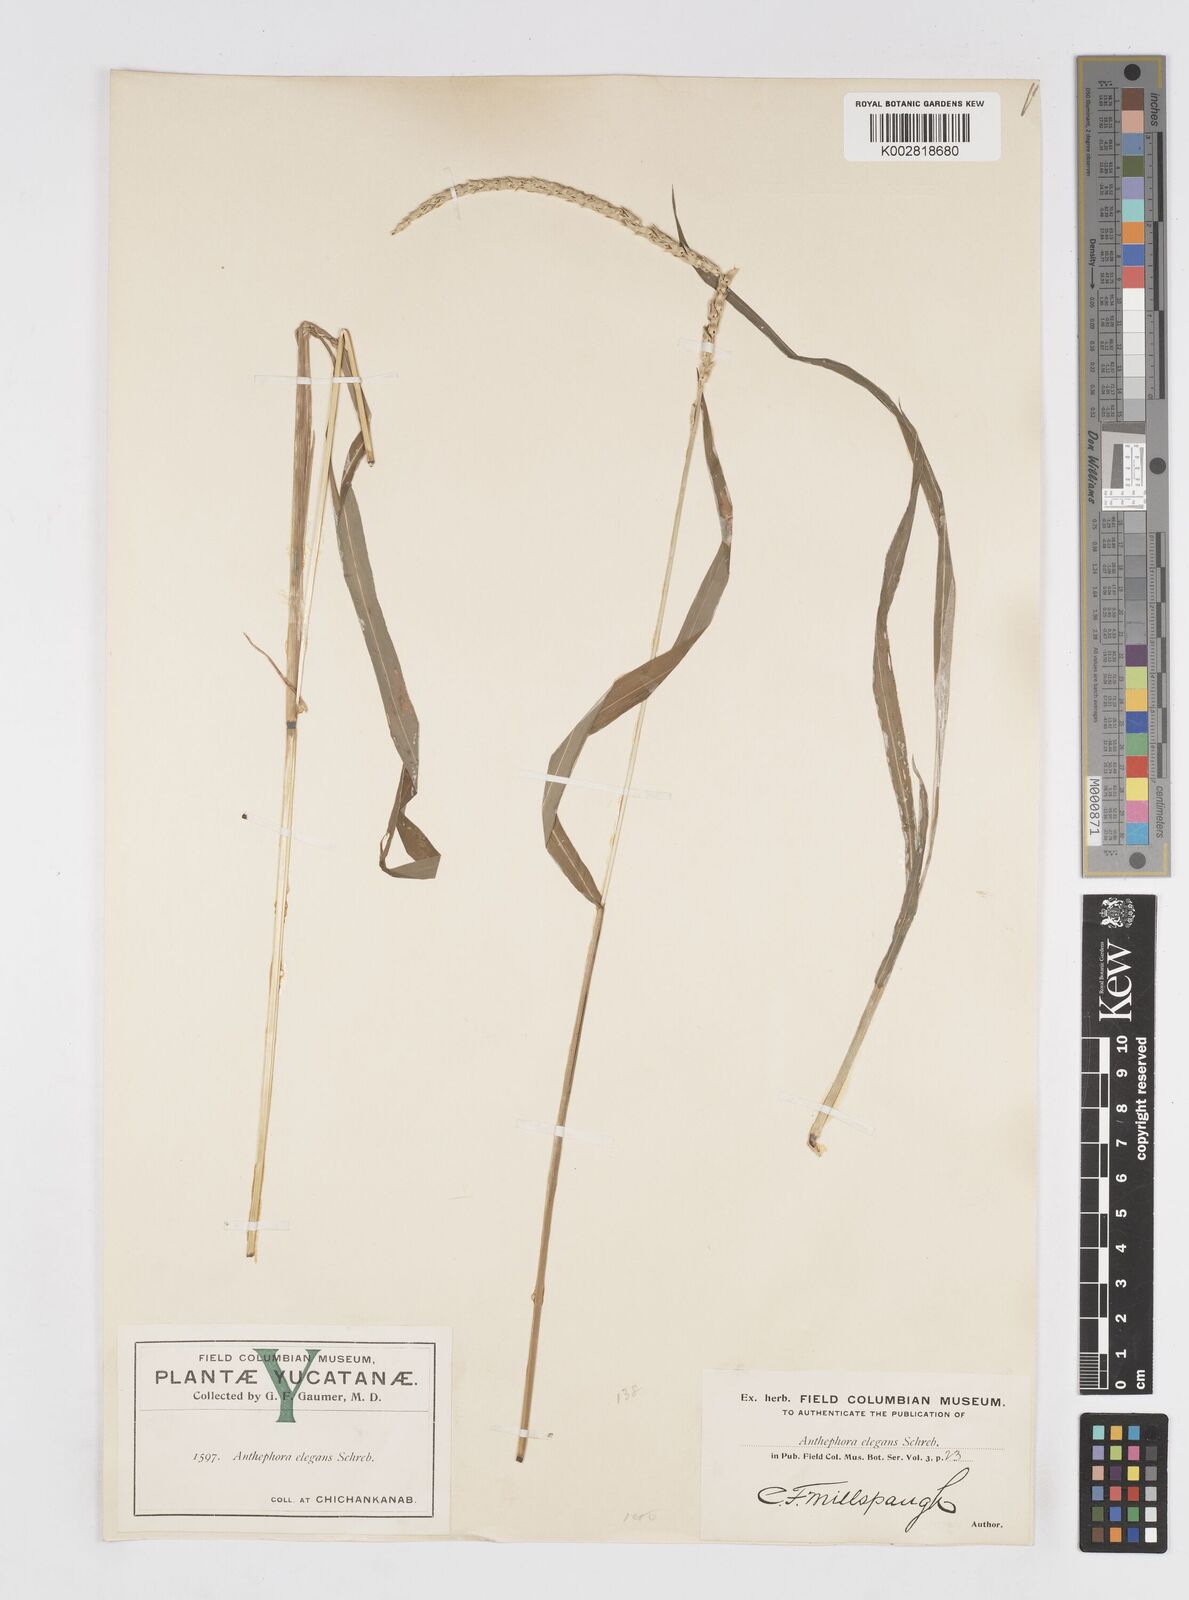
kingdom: Plantae
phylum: Tracheophyta
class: Liliopsida
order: Poales
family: Poaceae
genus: Anthephora
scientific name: Anthephora hermaphrodita
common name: Oldfield grass
